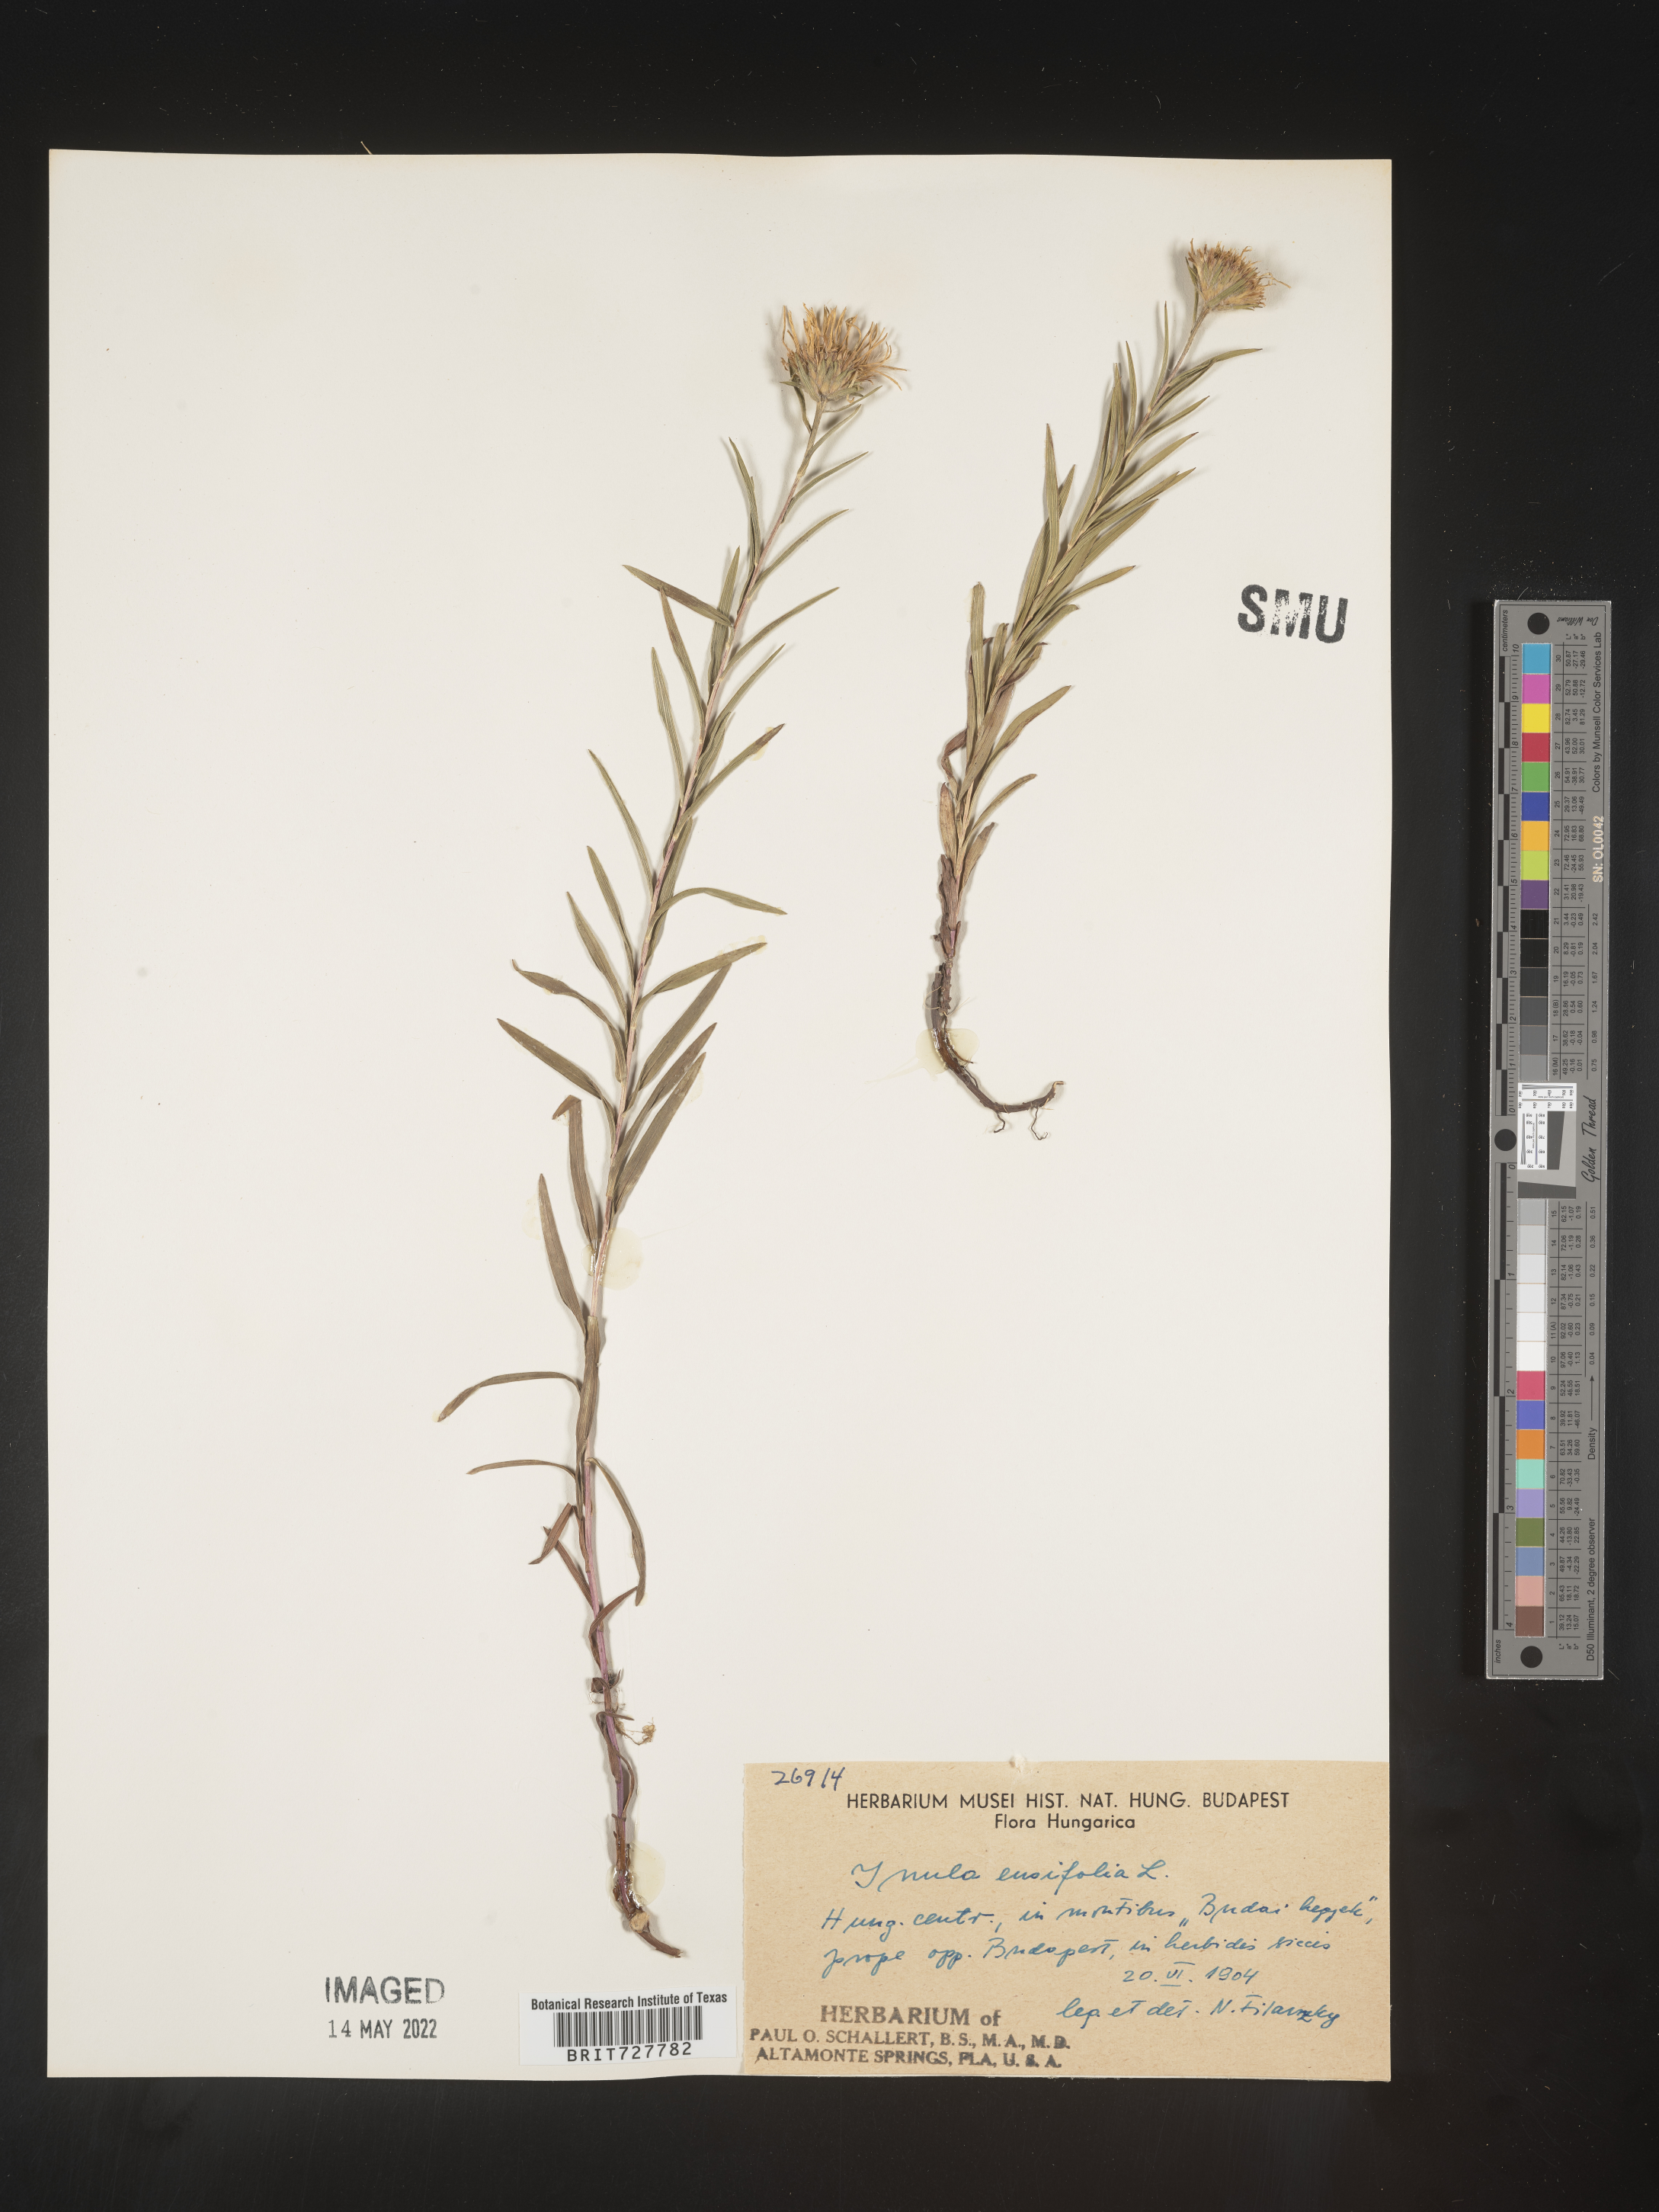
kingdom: Plantae
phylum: Tracheophyta
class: Magnoliopsida
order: Asterales
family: Asteraceae
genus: Inula
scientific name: Inula
